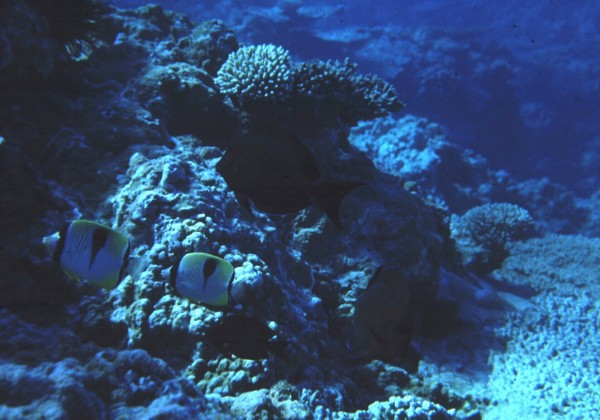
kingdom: Animalia
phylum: Chordata
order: Perciformes
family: Chaetodontidae
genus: Chaetodon
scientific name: Chaetodon unimaculatus
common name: Teardrop butterflyfish
